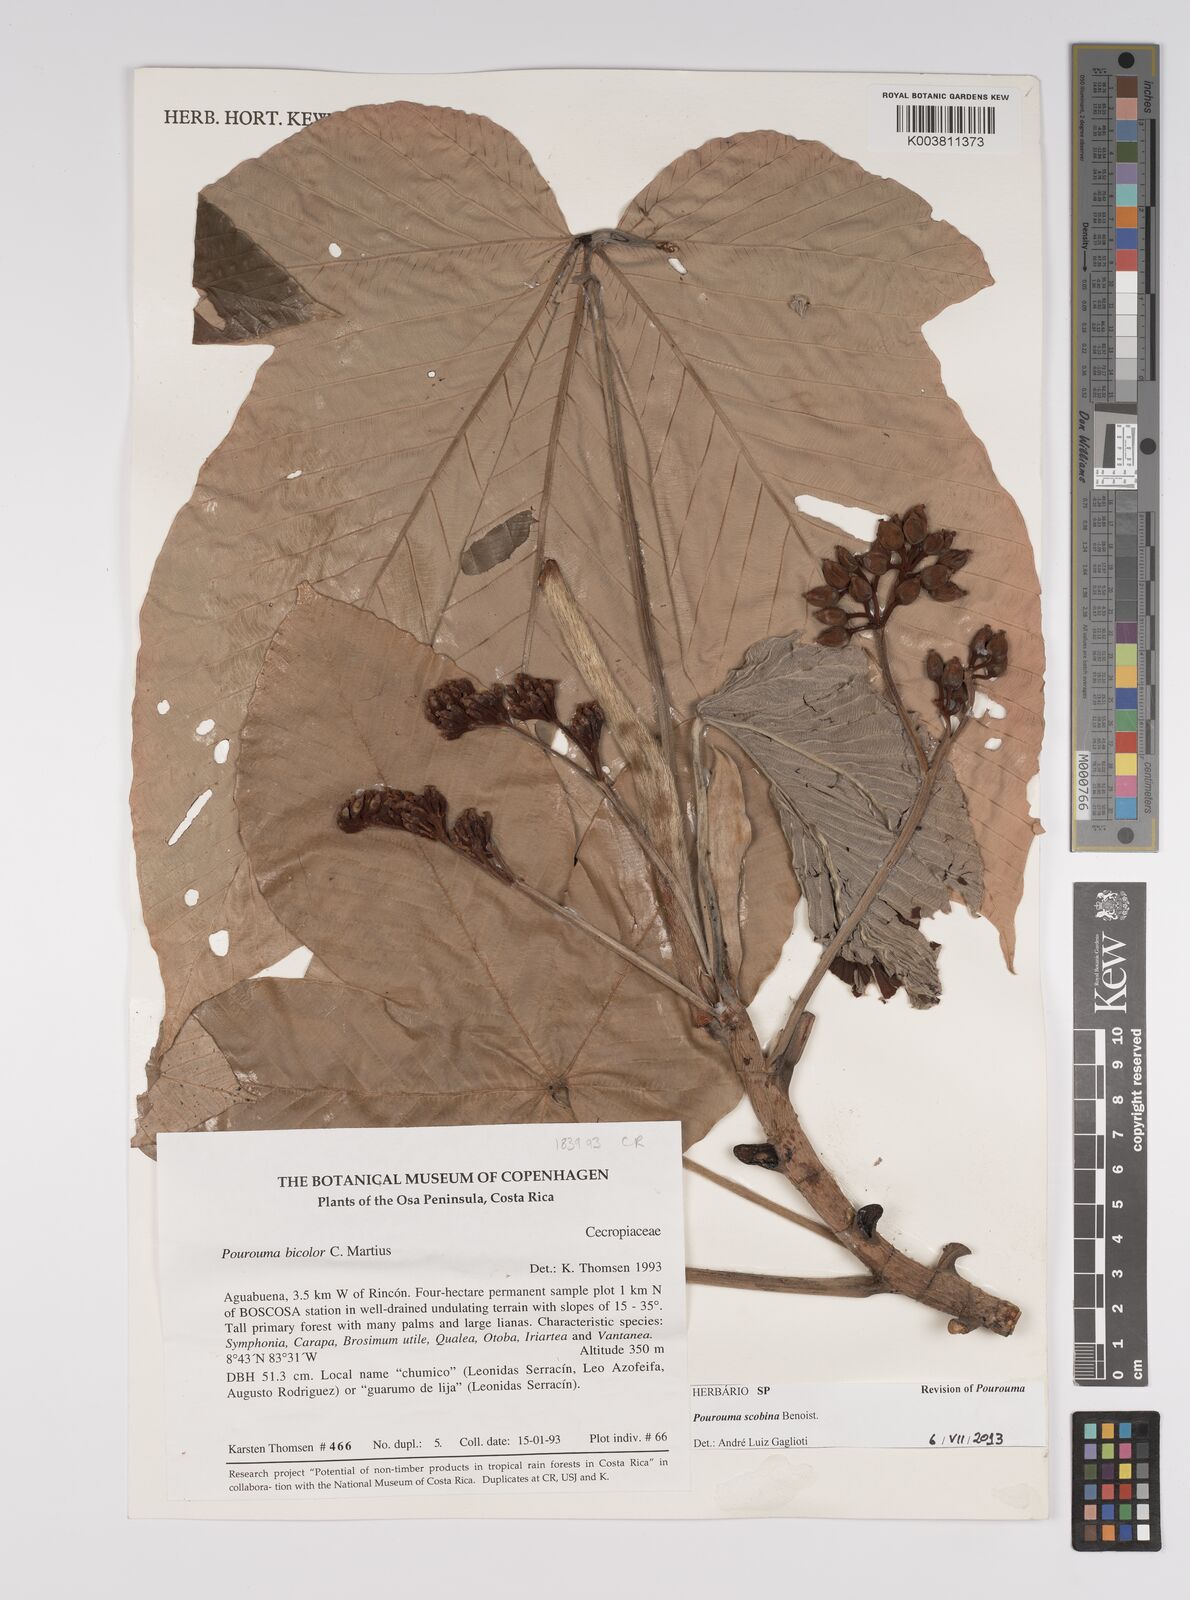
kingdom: Plantae
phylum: Tracheophyta
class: Magnoliopsida
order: Rosales
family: Urticaceae
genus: Pourouma
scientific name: Pourouma bicolor
